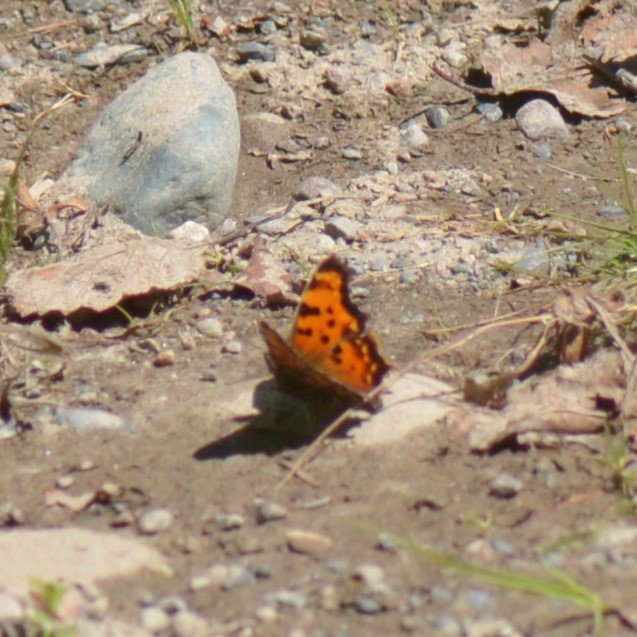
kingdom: Animalia
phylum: Arthropoda
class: Insecta
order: Lepidoptera
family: Nymphalidae
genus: Polygonia
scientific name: Polygonia faunus
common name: Green Comma
